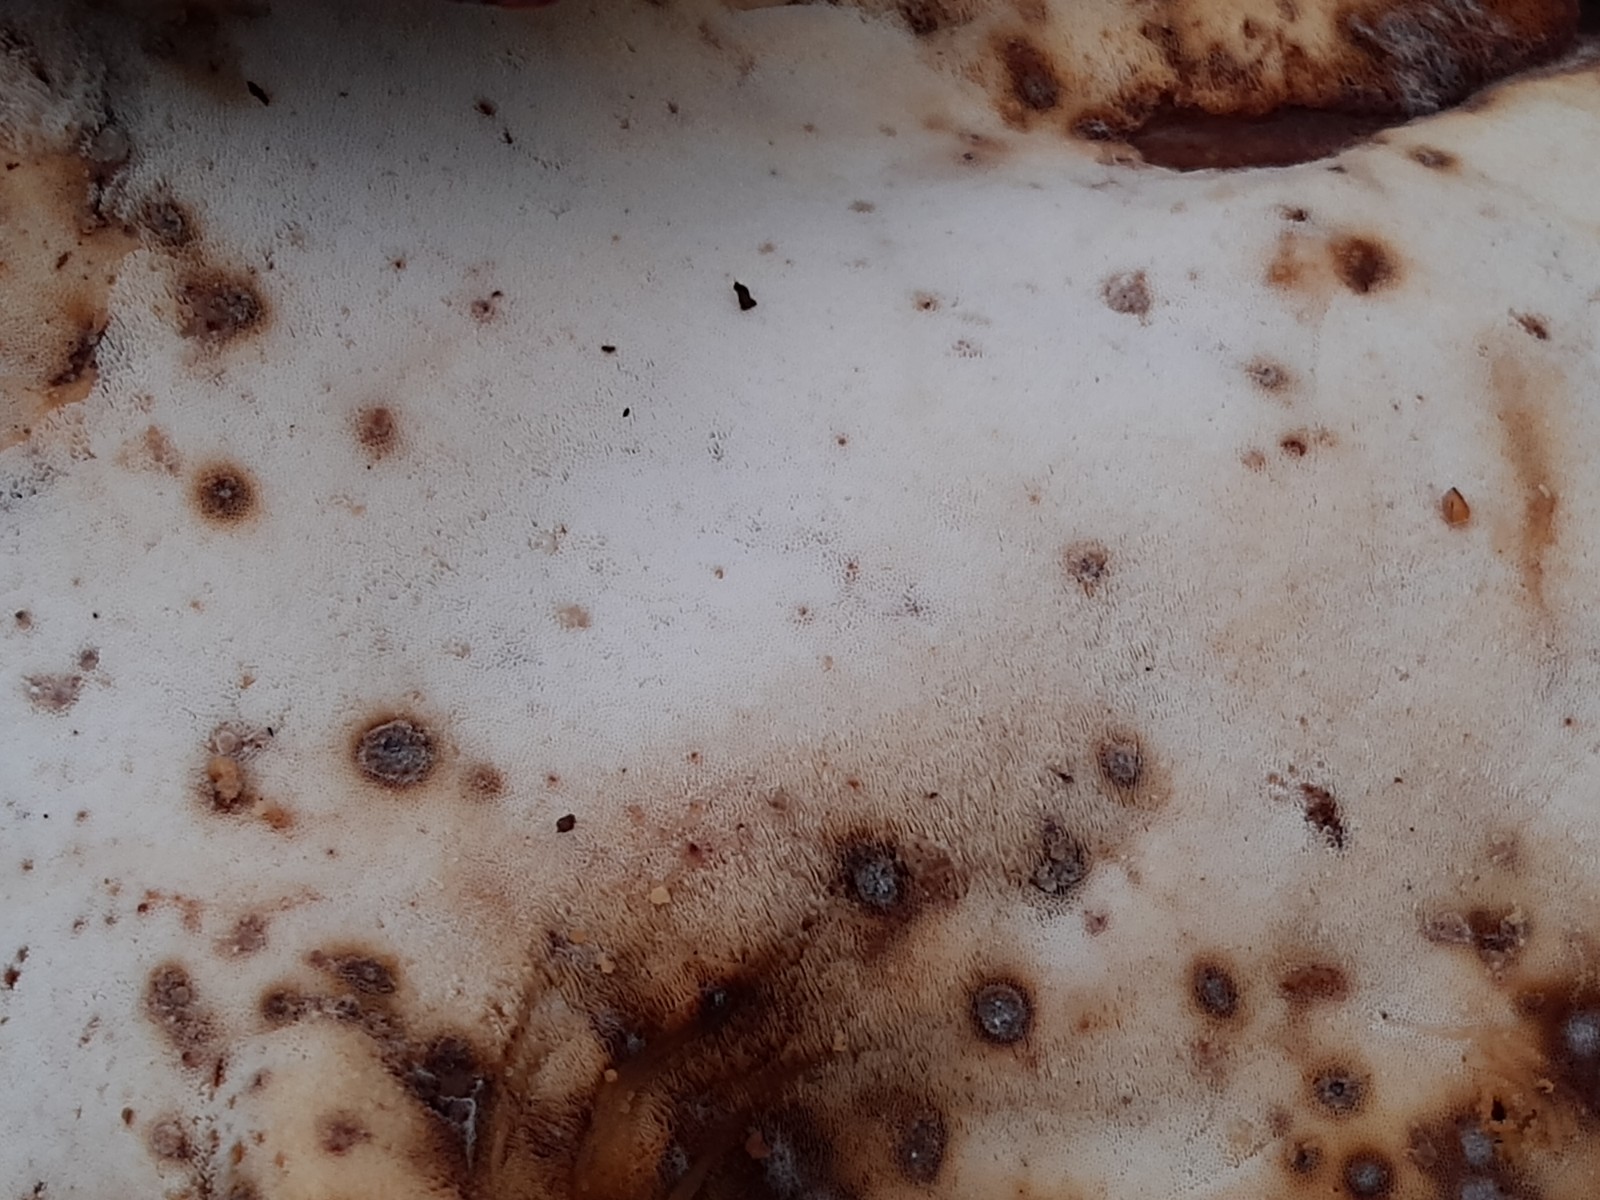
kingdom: Fungi
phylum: Basidiomycota
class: Agaricomycetes
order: Polyporales
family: Polyporaceae
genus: Picipes
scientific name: Picipes badius
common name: kastaniebrun stilkporesvamp
